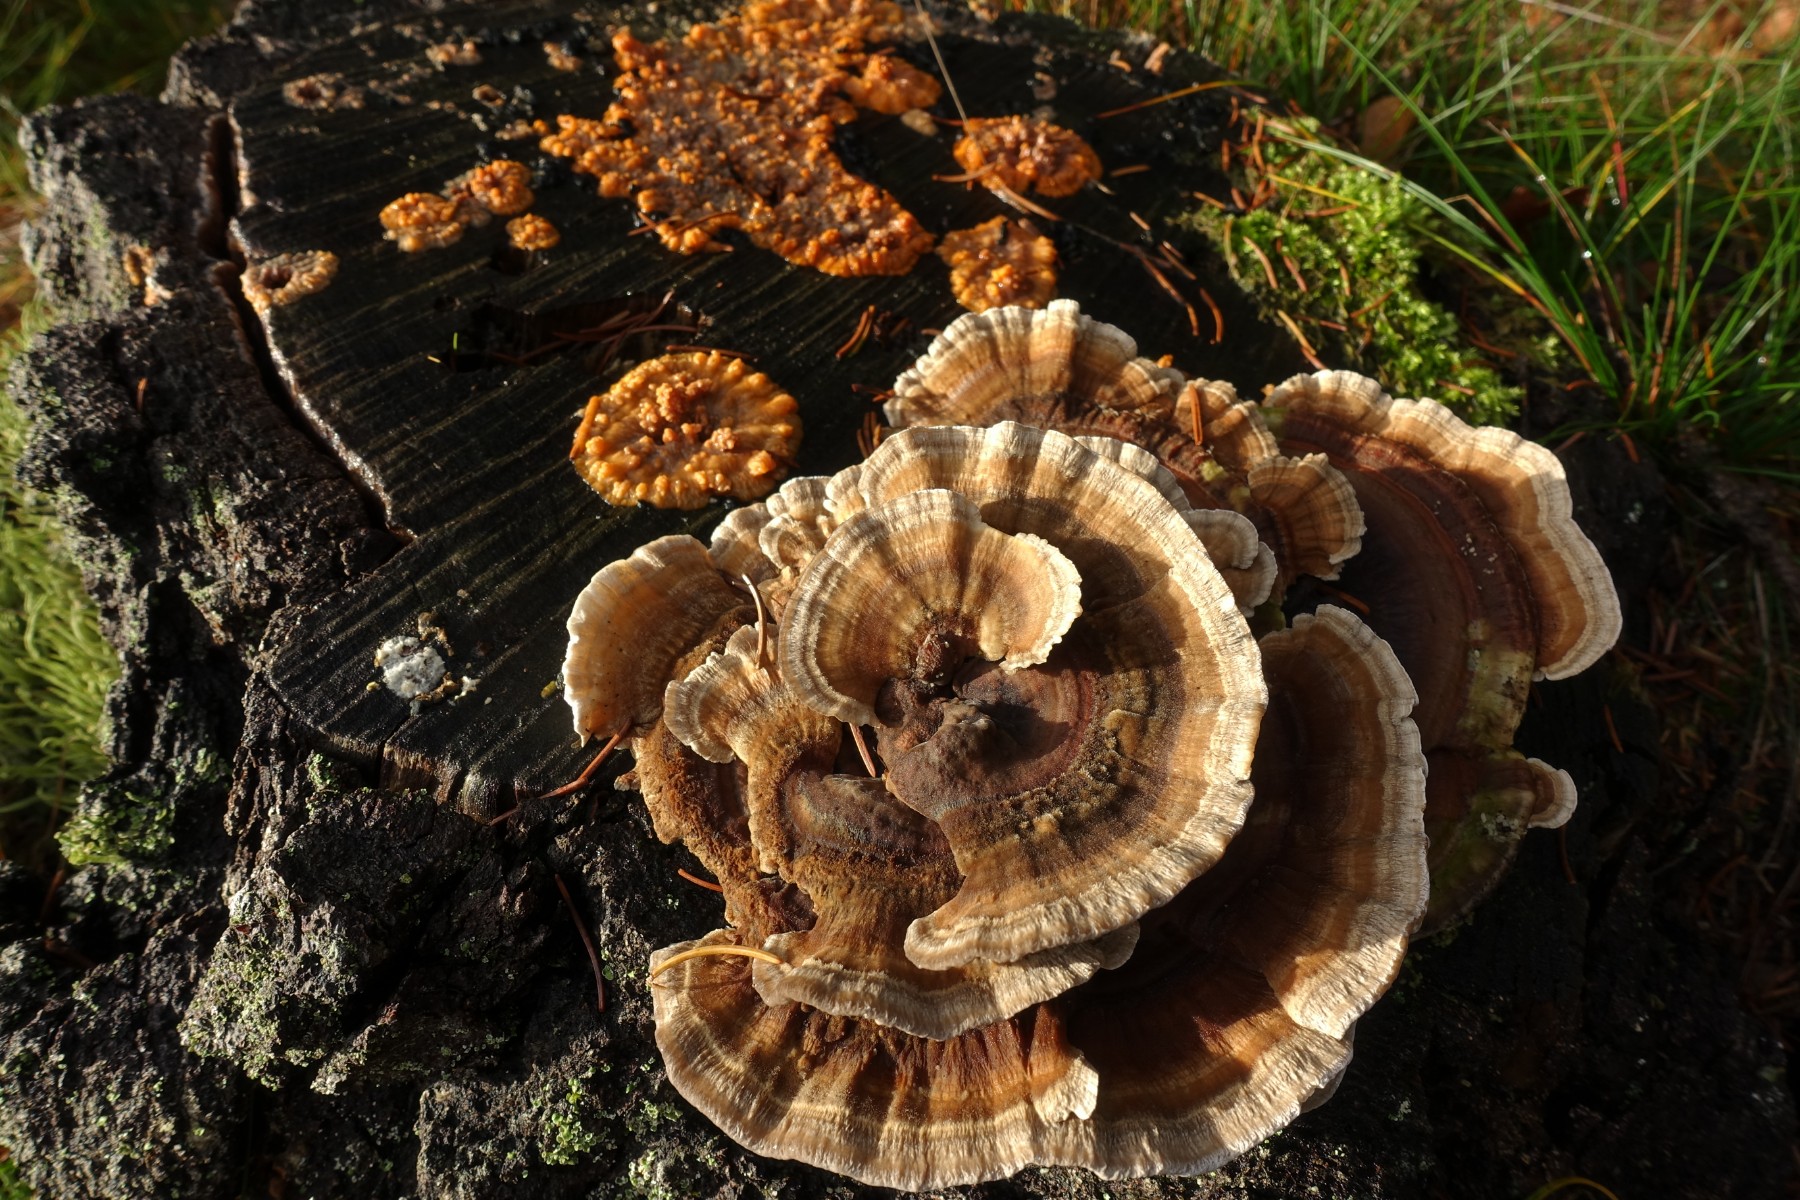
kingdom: Fungi
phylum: Basidiomycota
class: Agaricomycetes
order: Polyporales
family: Polyporaceae
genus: Trametes
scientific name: Trametes ochracea
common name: bæltet læderporesvamp
